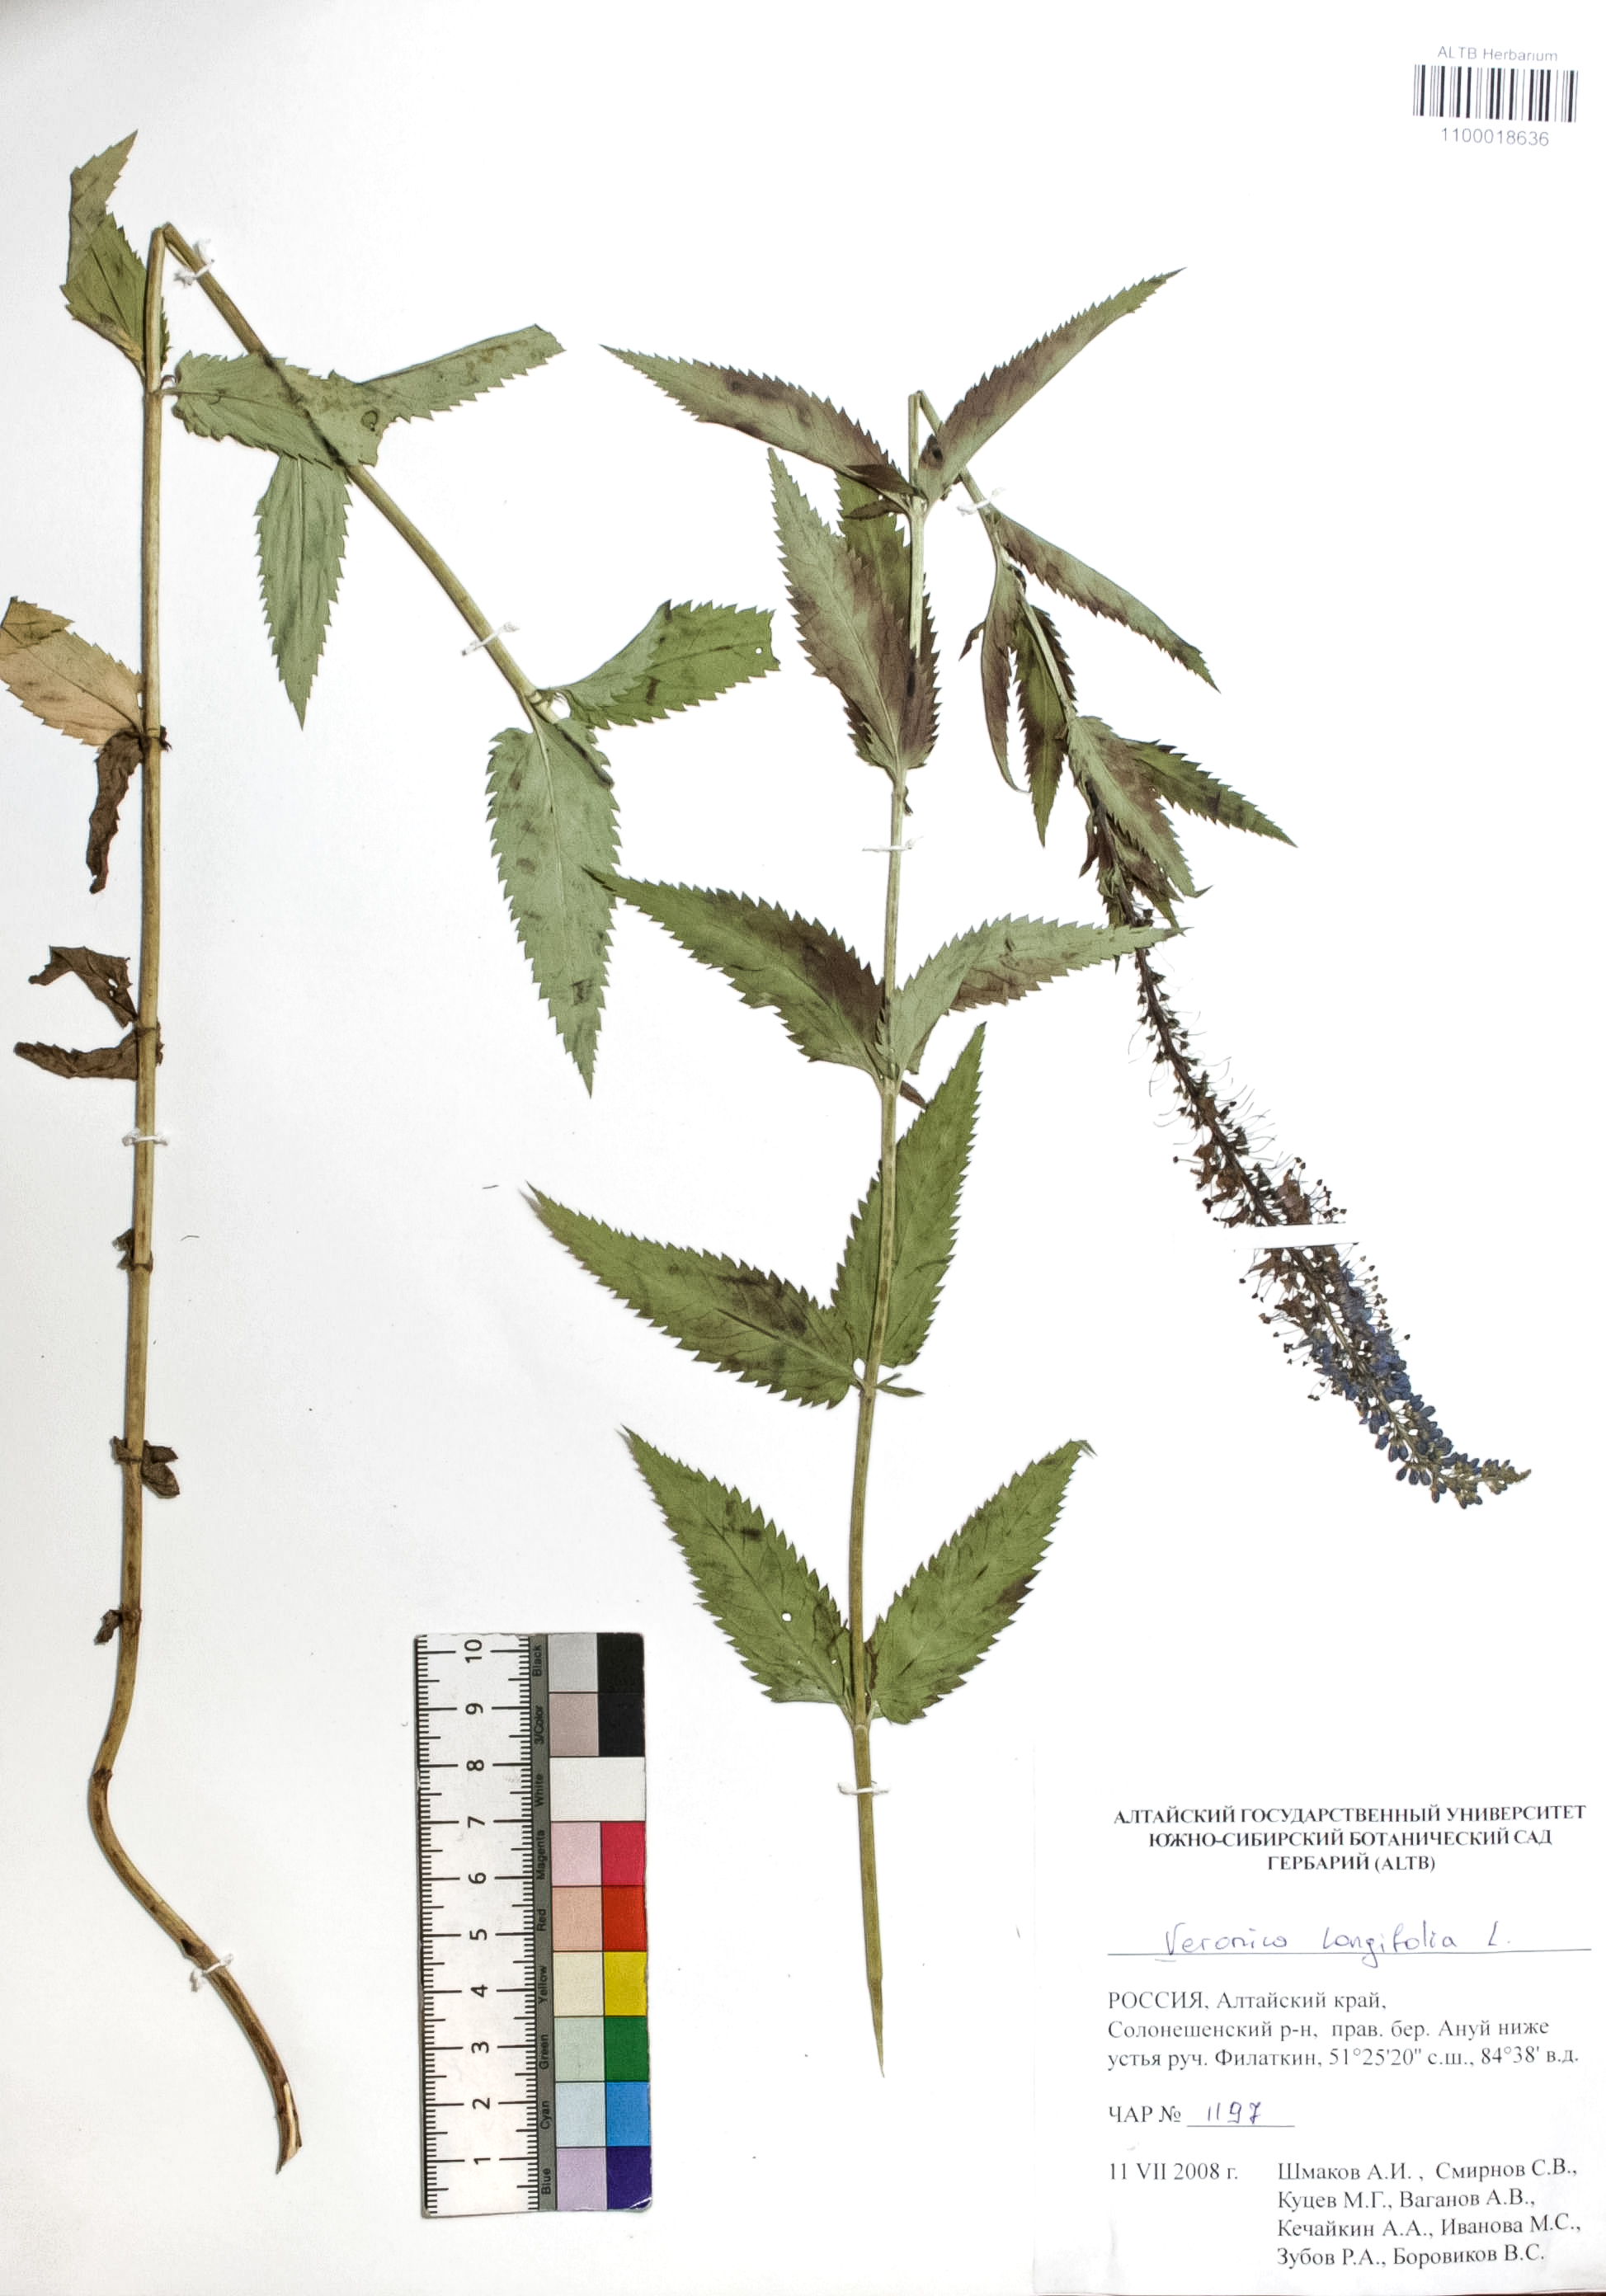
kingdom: Plantae
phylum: Tracheophyta
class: Magnoliopsida
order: Lamiales
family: Plantaginaceae
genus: Veronica
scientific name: Veronica longifolia
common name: Garden speedwell
